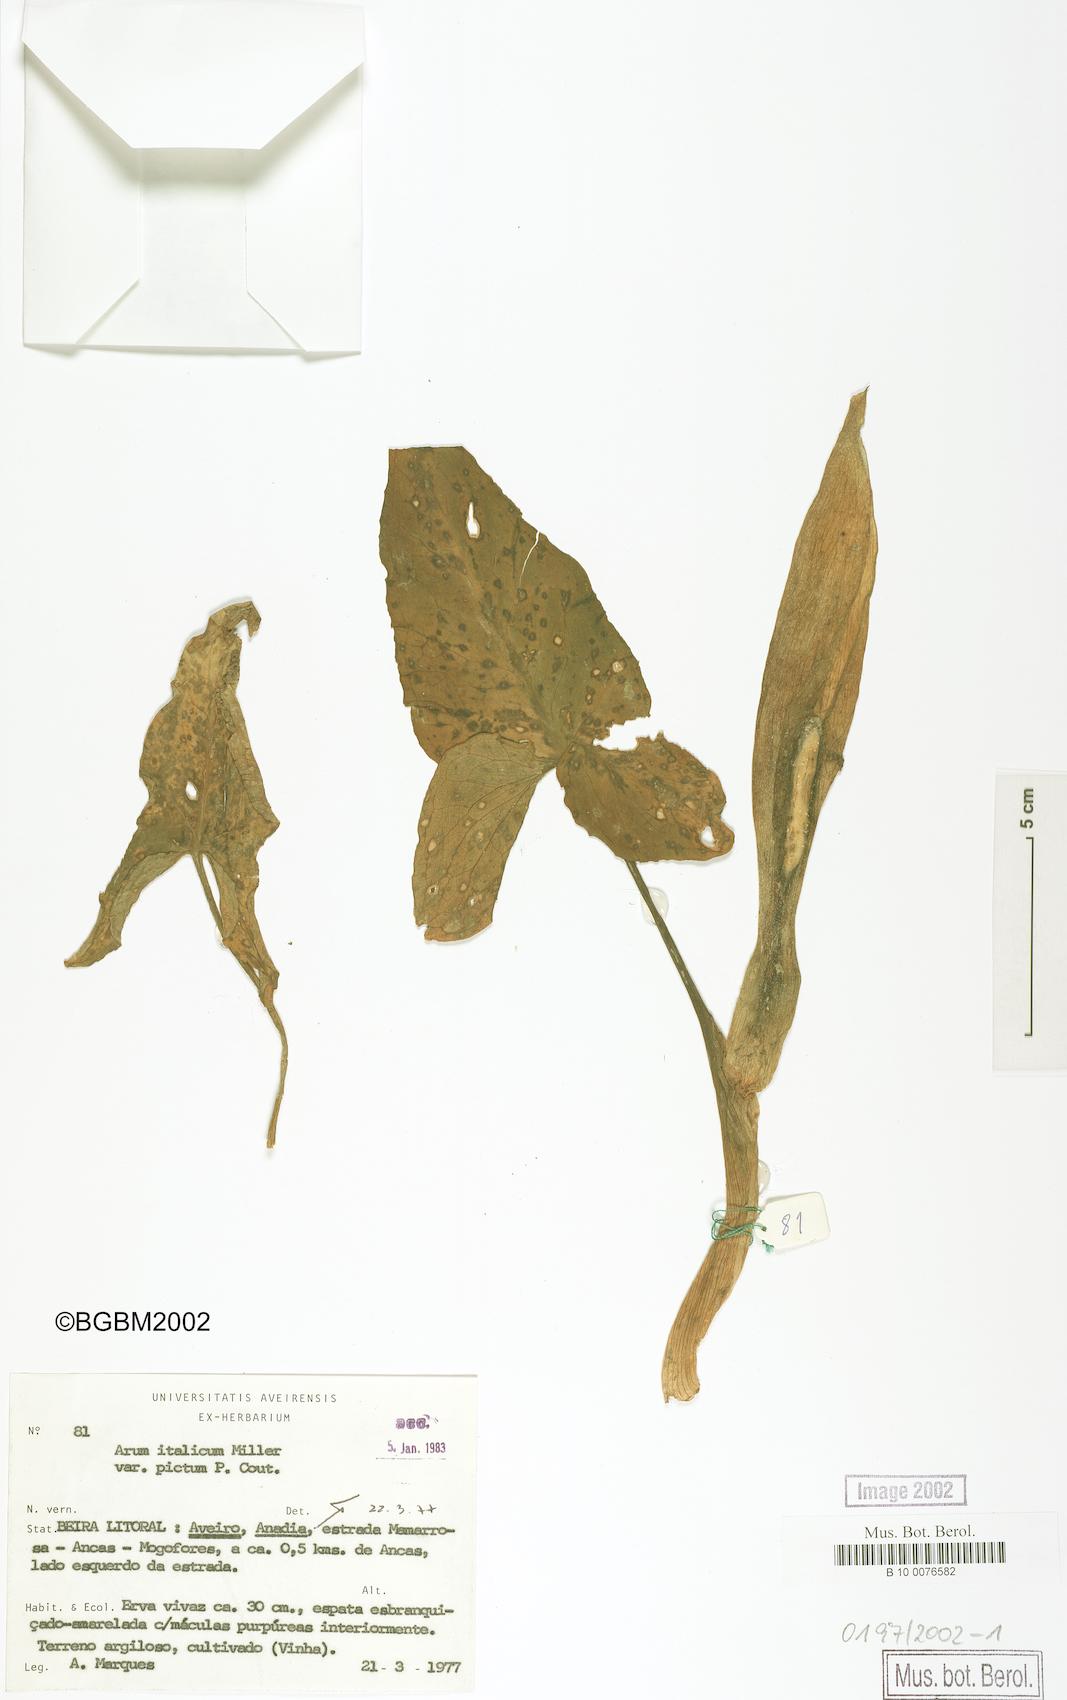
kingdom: Plantae
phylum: Tracheophyta
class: Liliopsida
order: Alismatales
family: Araceae
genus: Arum
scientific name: Arum italicum
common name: Italian lords-and-ladies
